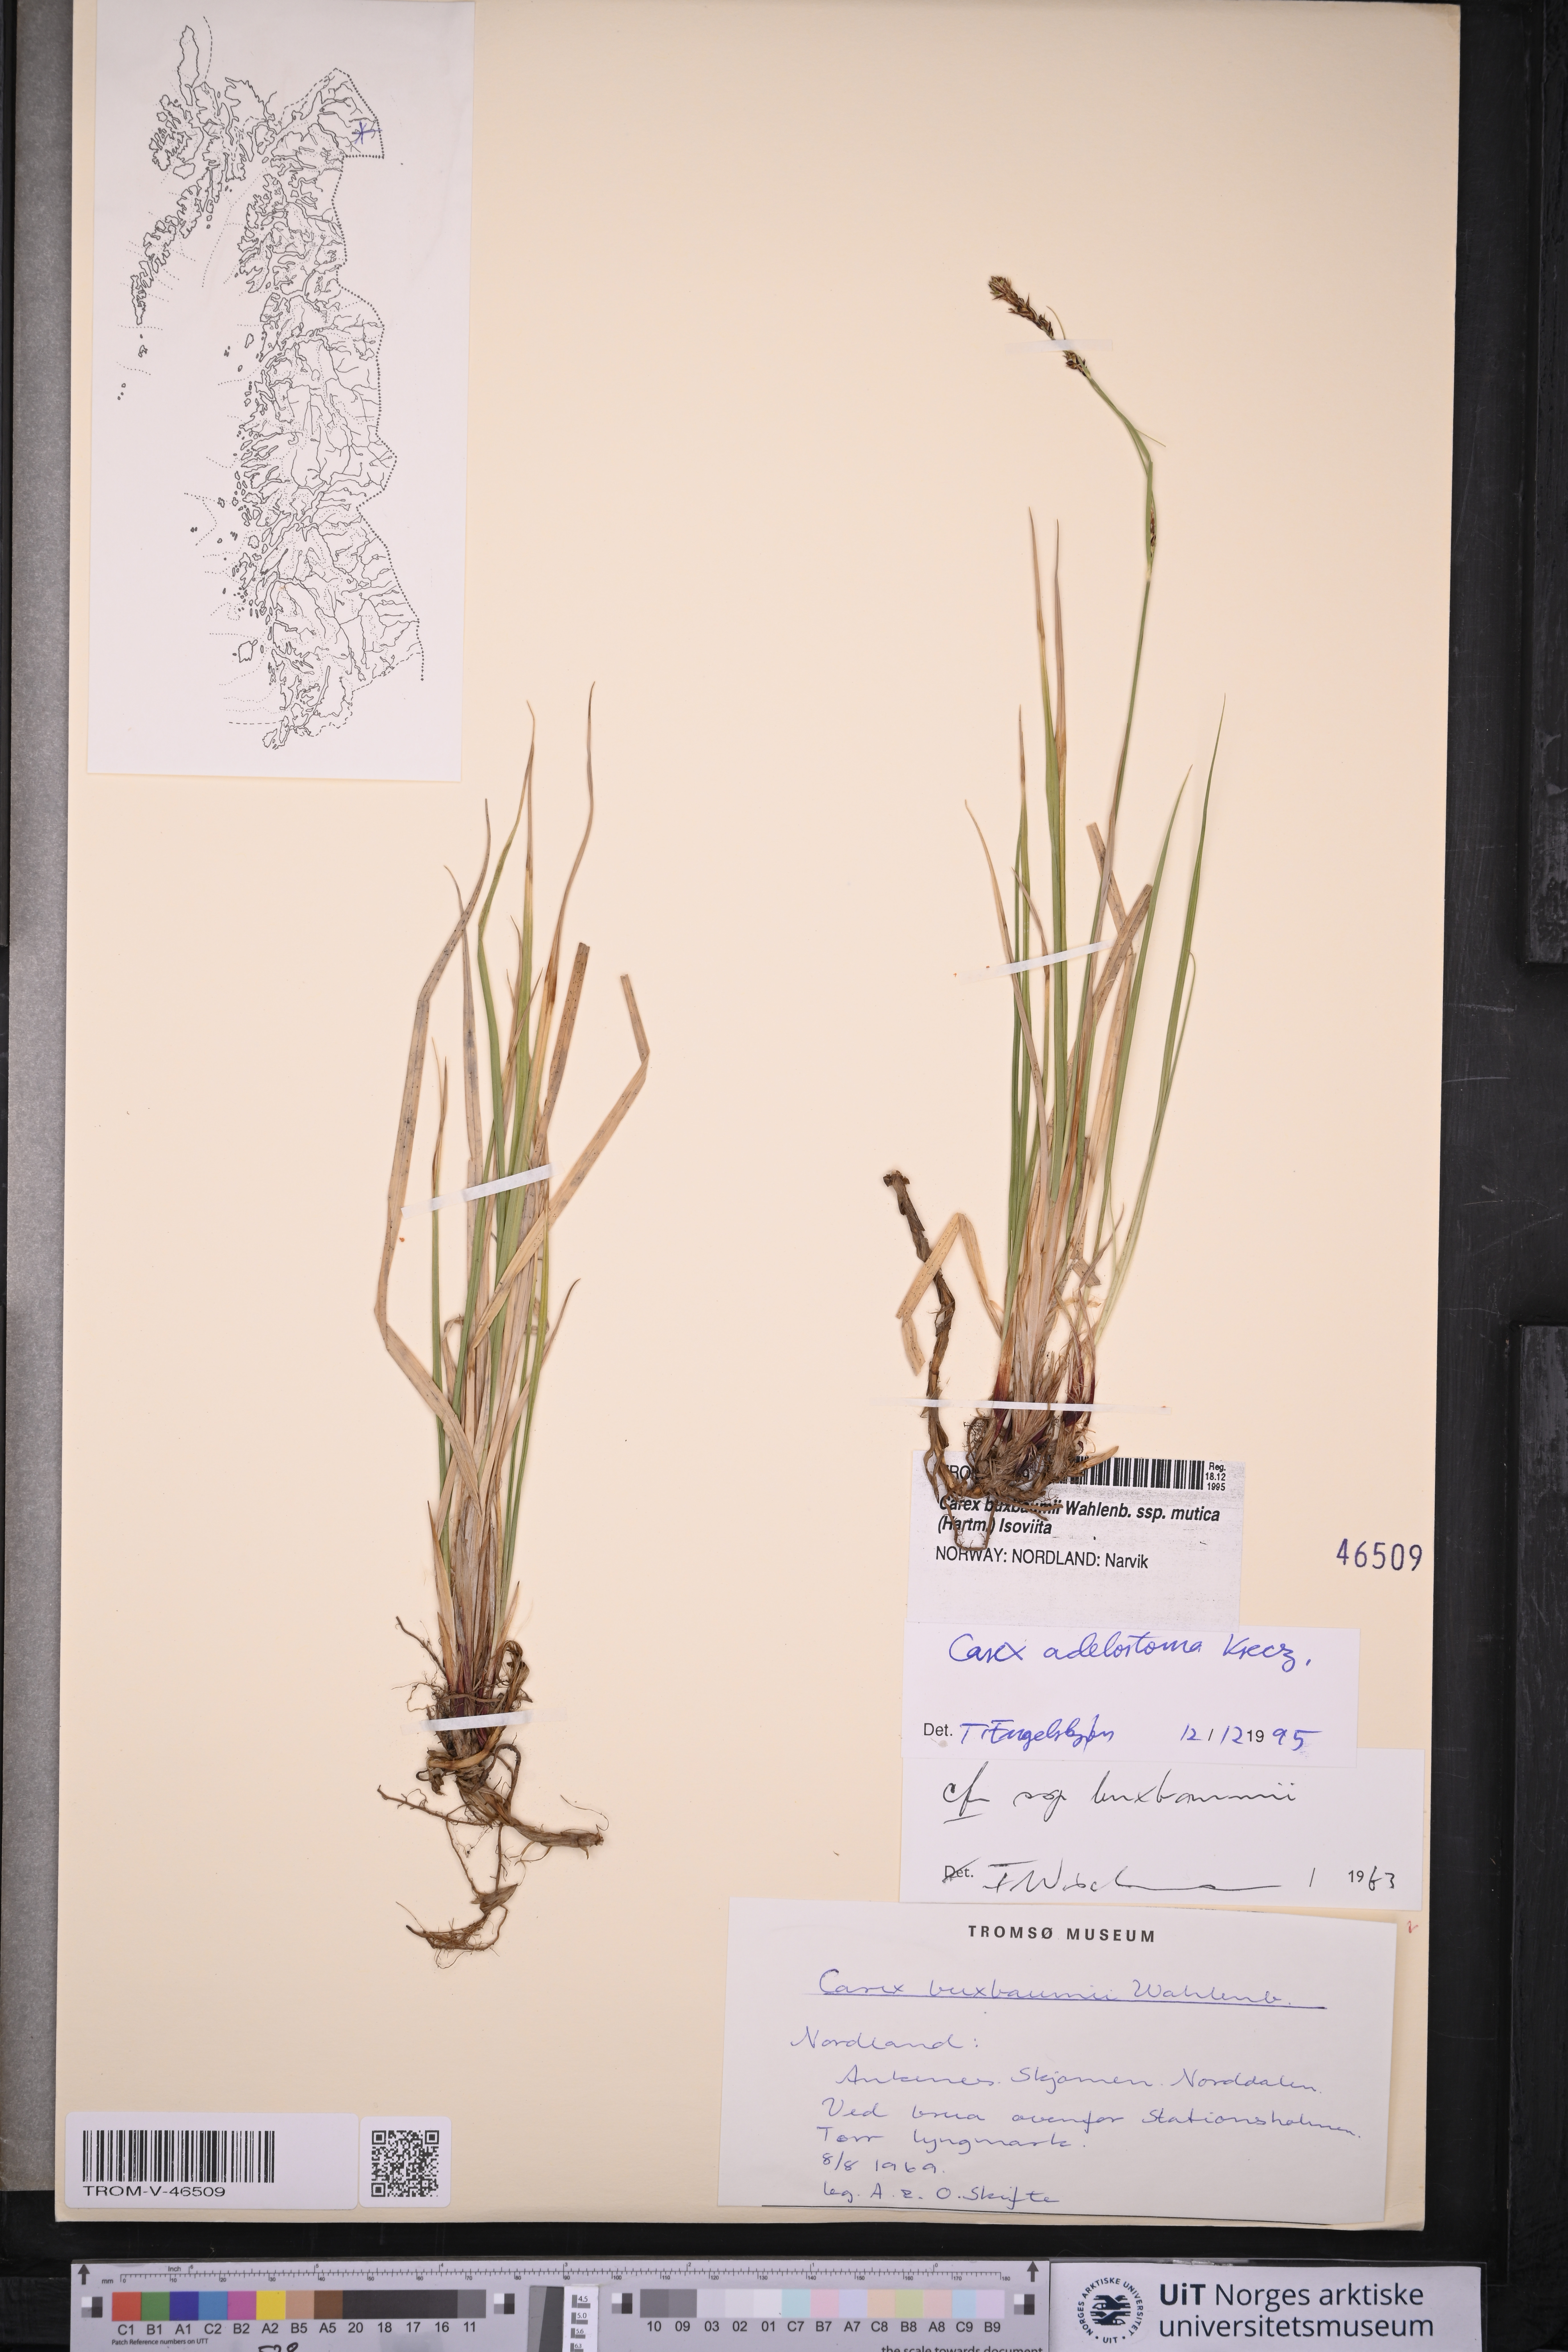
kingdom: Plantae
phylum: Tracheophyta
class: Liliopsida
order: Poales
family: Cyperaceae
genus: Carex
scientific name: Carex adelostoma
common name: Circumpolar sedge
